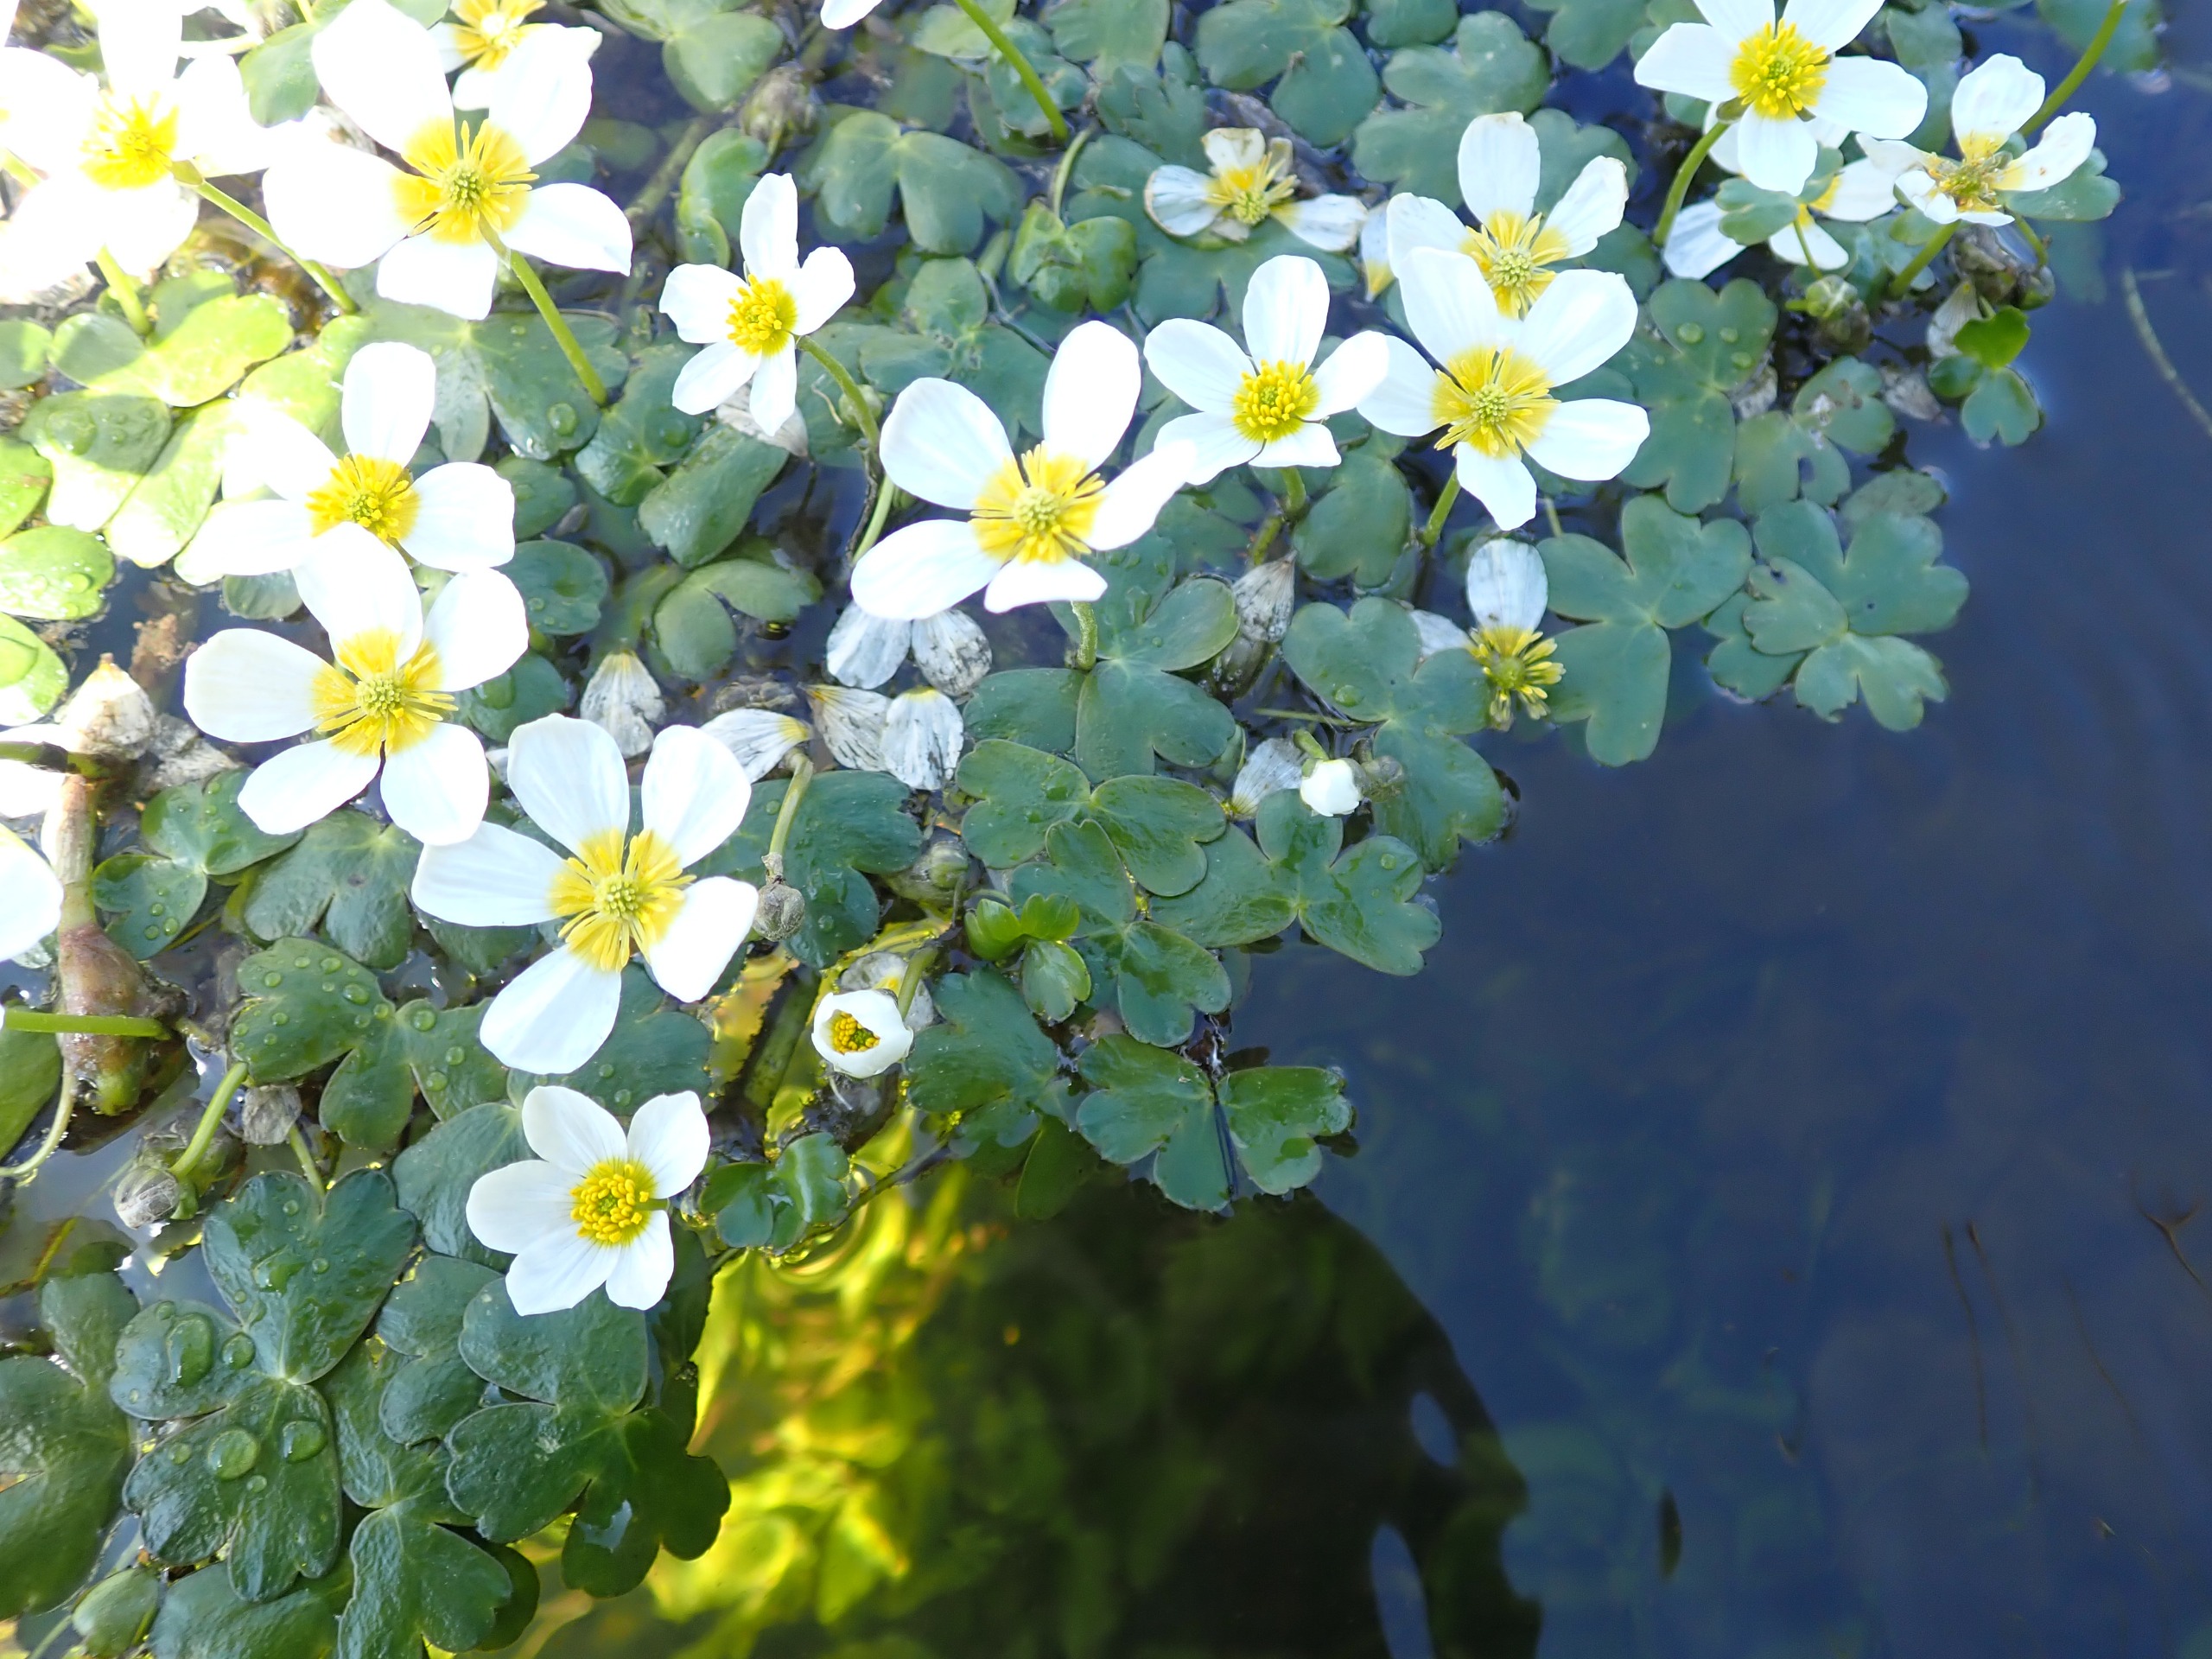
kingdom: Plantae
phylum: Tracheophyta
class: Magnoliopsida
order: Ranunculales
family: Ranunculaceae
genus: Ranunculus
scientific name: Ranunculus peltatus
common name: Storblomstret vandranunkel
